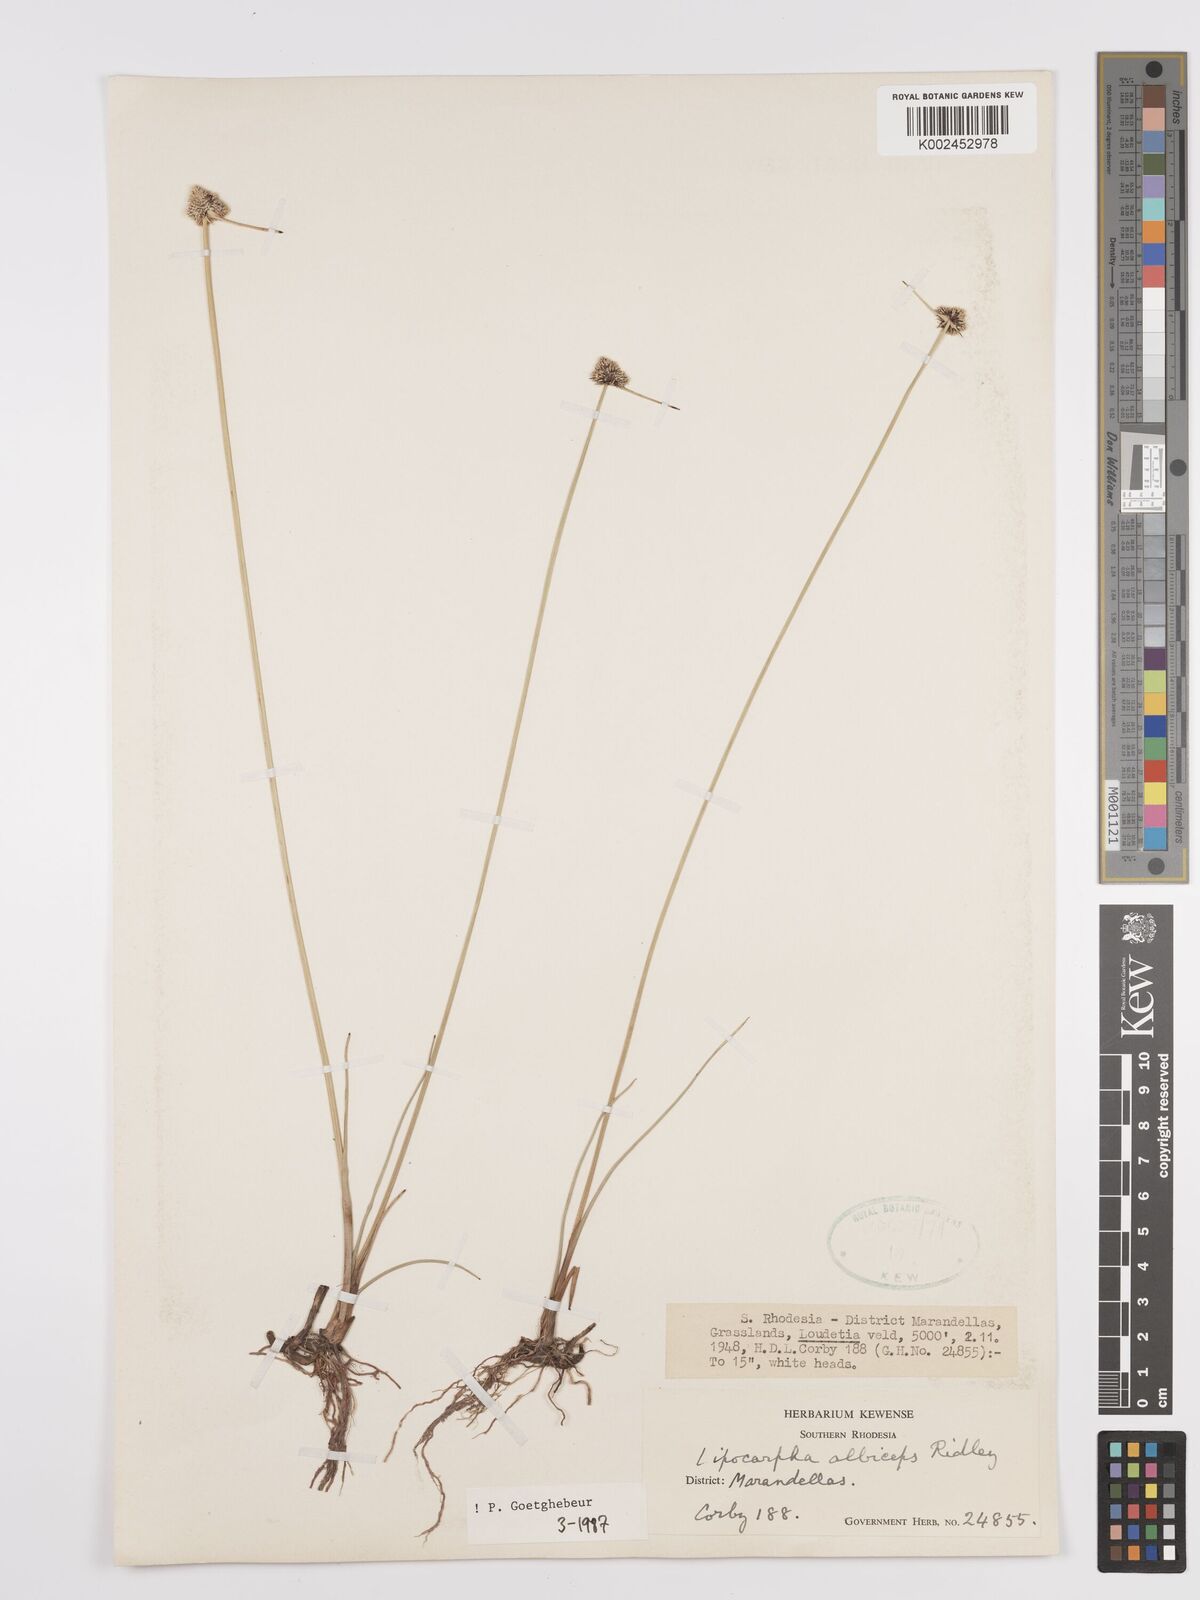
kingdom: Plantae
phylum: Tracheophyta
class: Liliopsida
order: Poales
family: Cyperaceae
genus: Cyperus
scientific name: Cyperus albiceps
